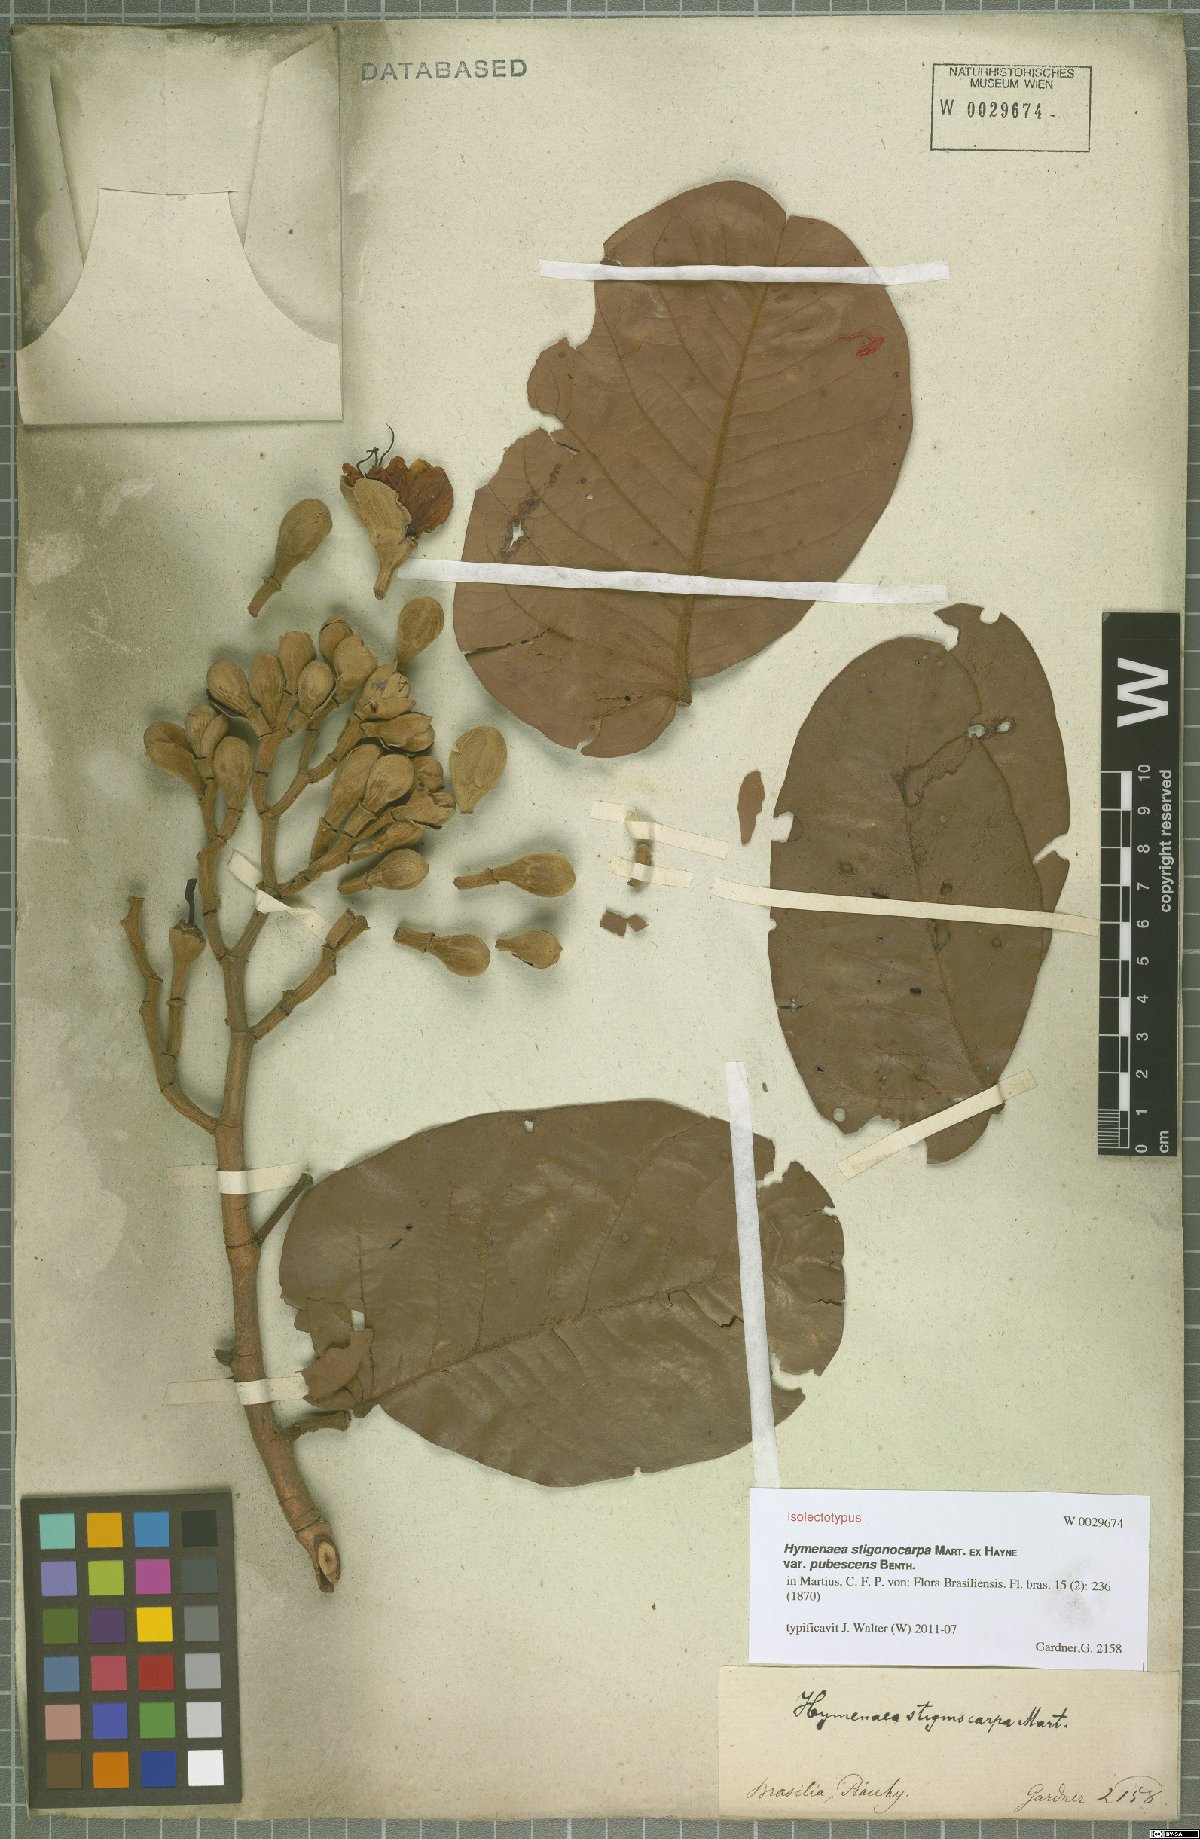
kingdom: Plantae
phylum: Tracheophyta
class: Magnoliopsida
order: Fabales
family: Fabaceae
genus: Hymenaea
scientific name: Hymenaea stigonocarpa
